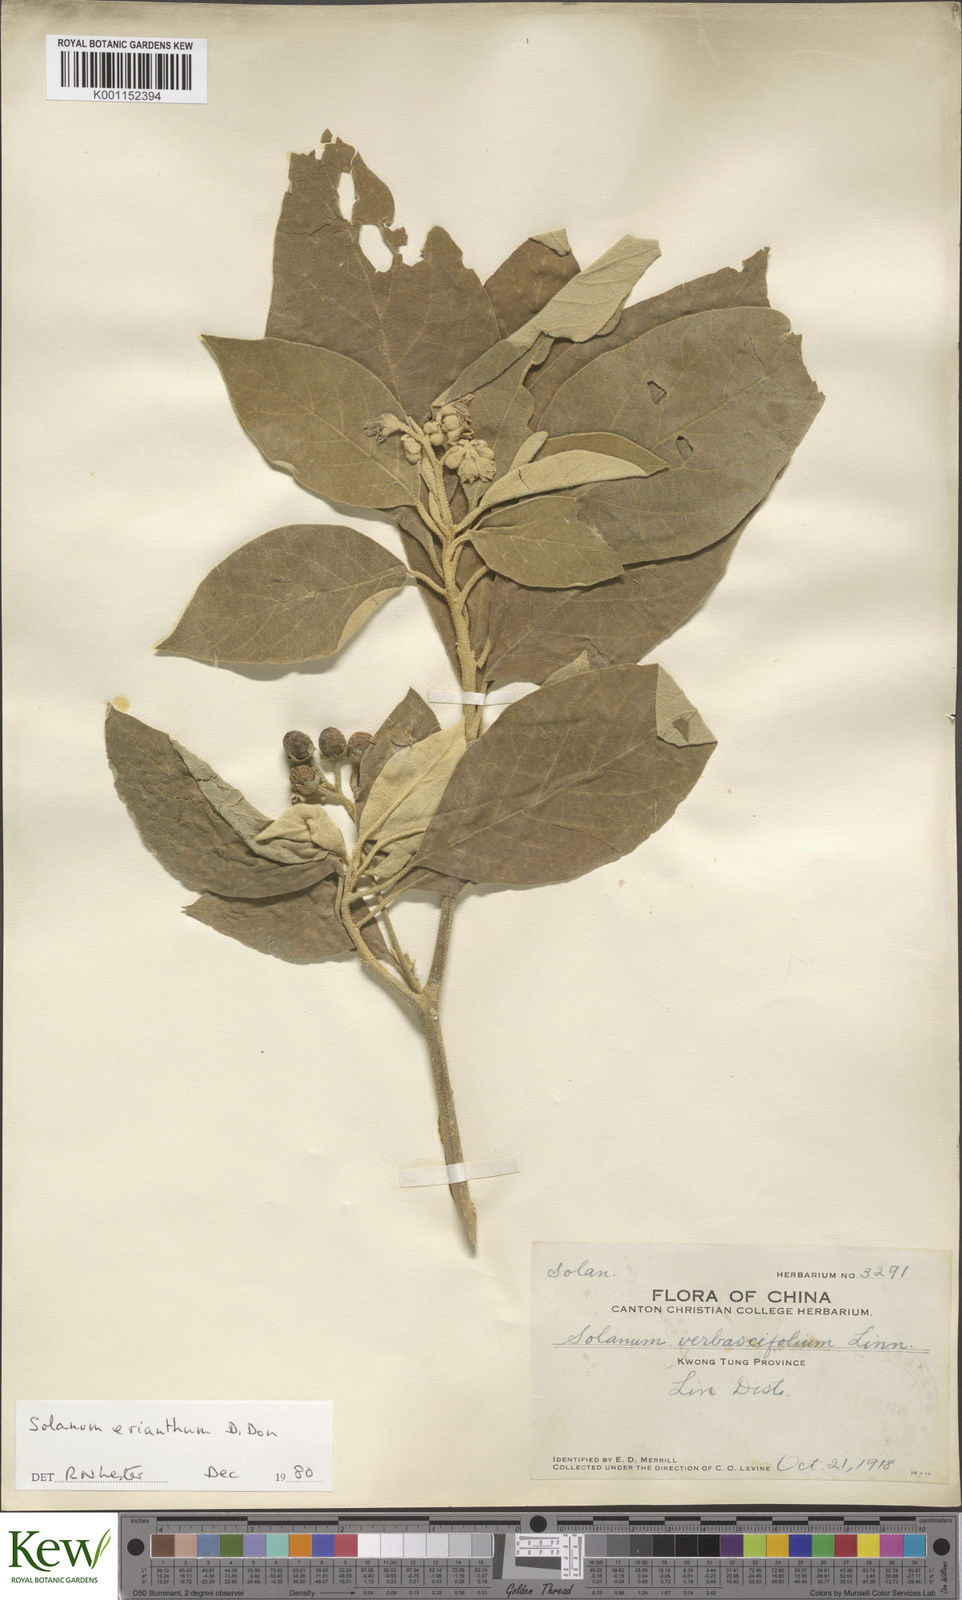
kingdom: Plantae
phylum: Tracheophyta
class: Magnoliopsida
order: Solanales
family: Solanaceae
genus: Solanum
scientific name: Solanum erianthum
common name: Tobacco-tree
